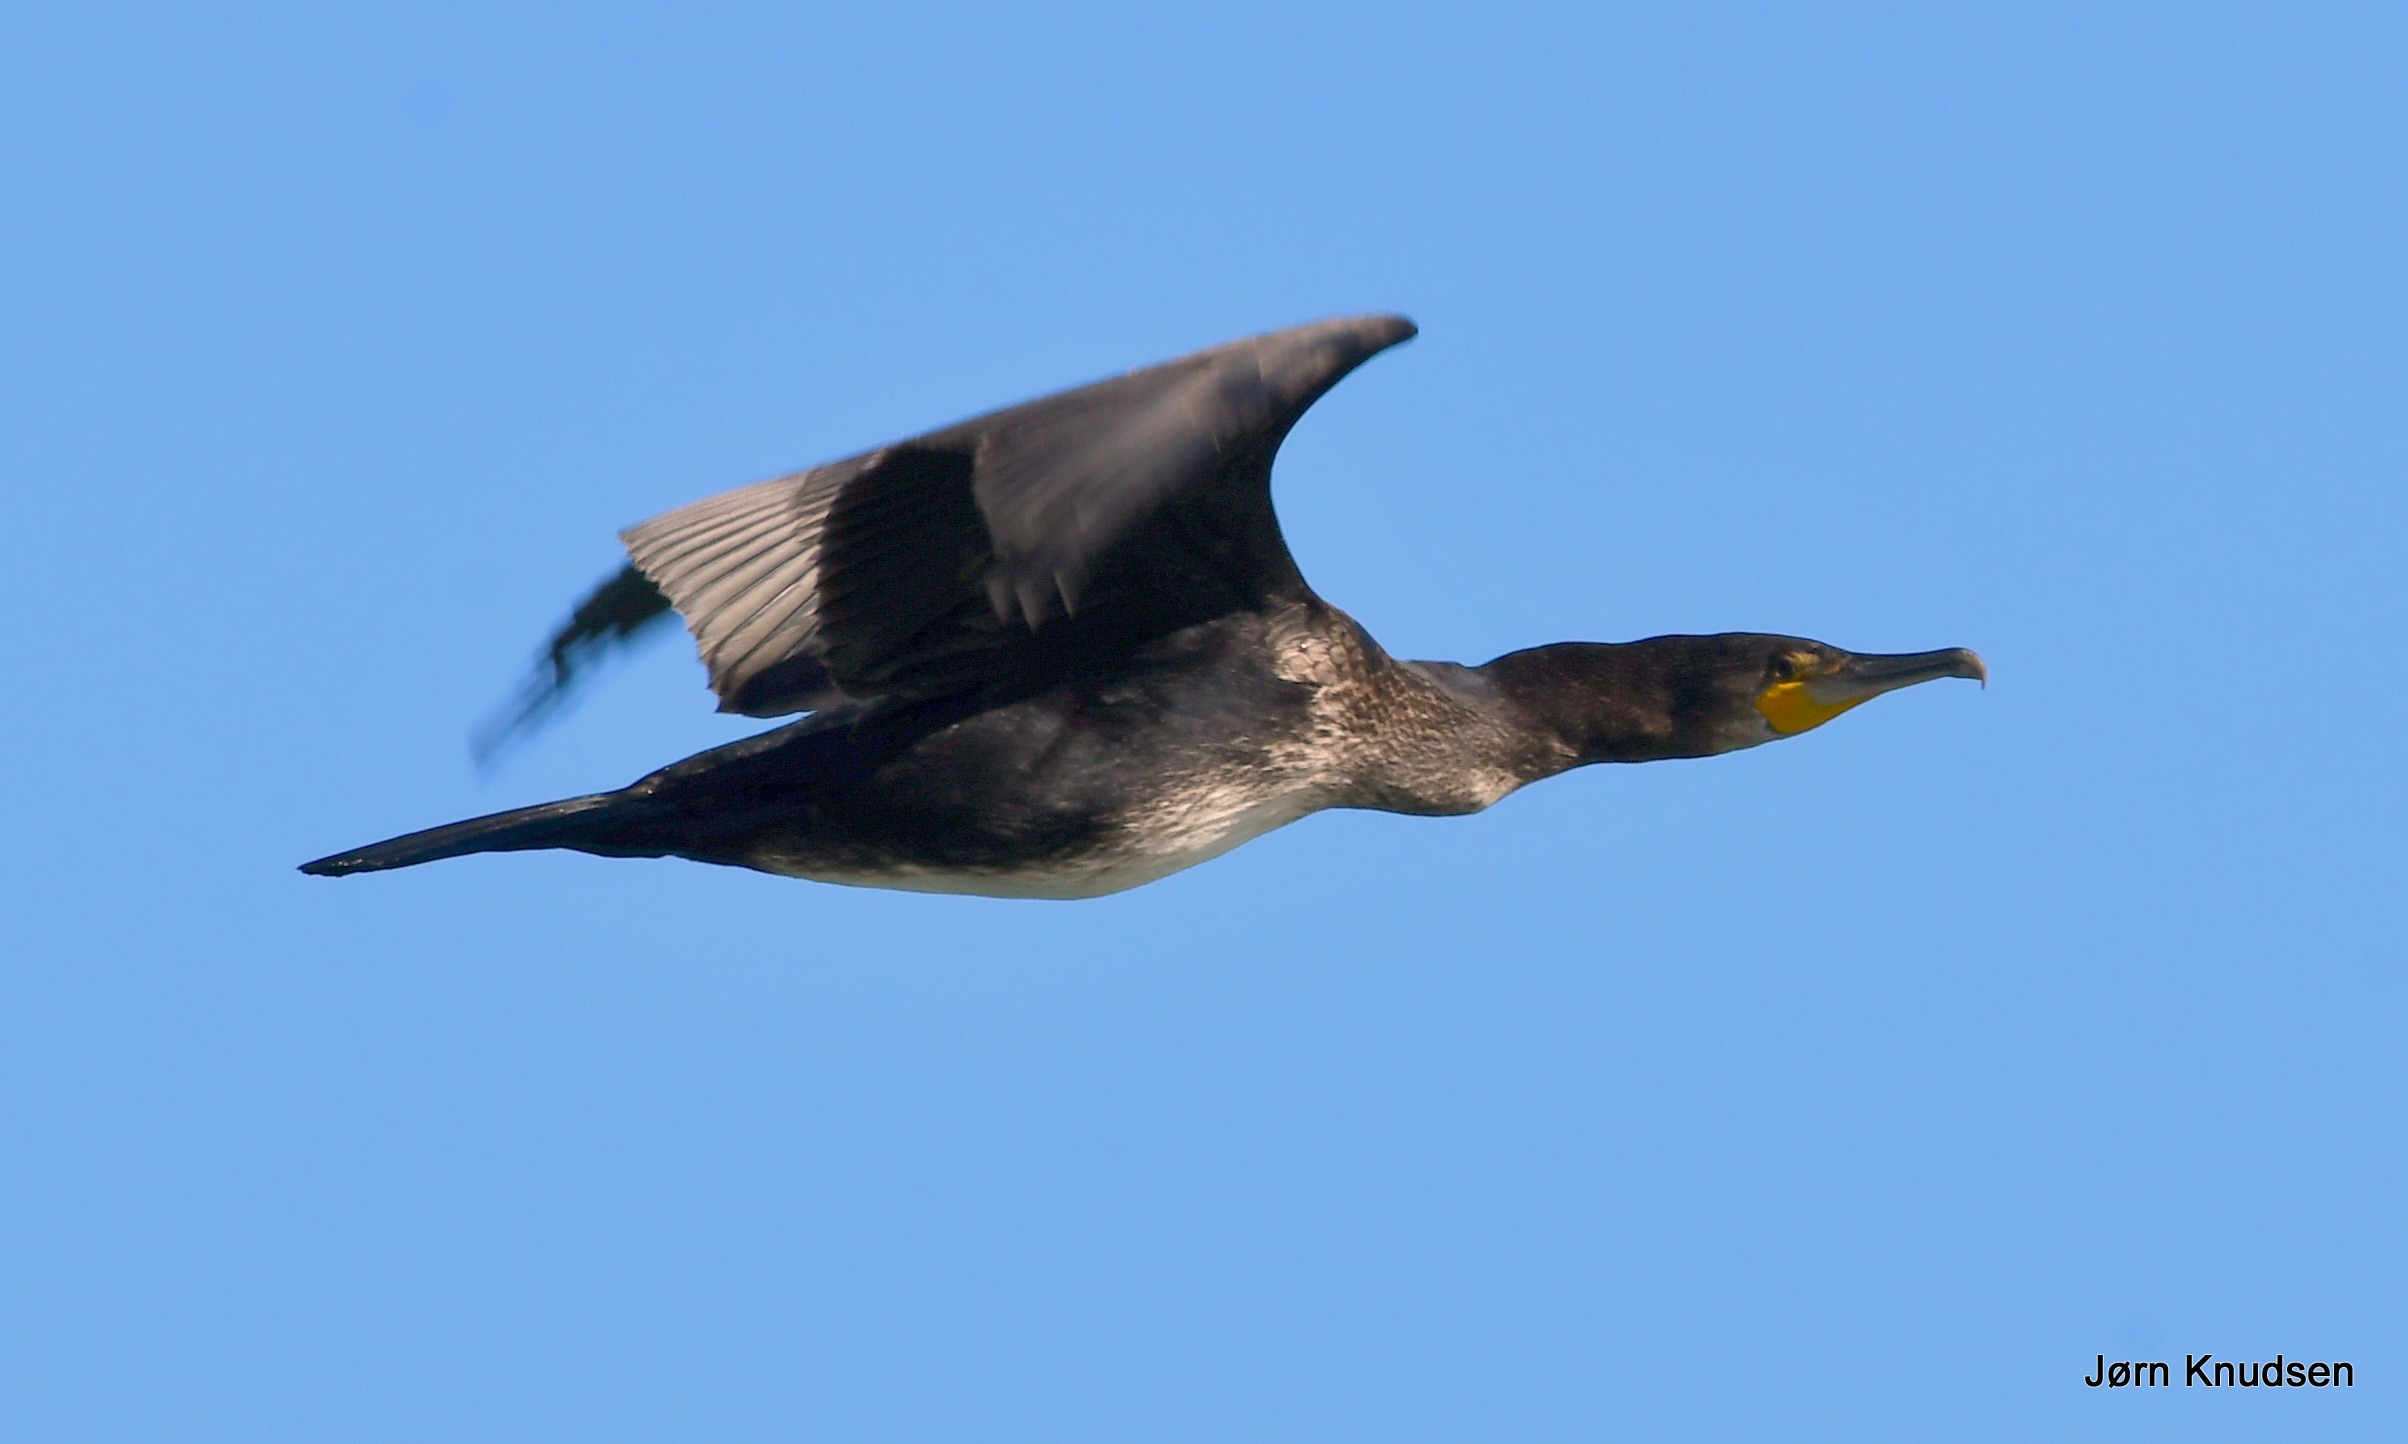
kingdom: Animalia
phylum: Chordata
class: Aves
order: Suliformes
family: Phalacrocoracidae
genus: Phalacrocorax
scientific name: Phalacrocorax carbo
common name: Skarv
